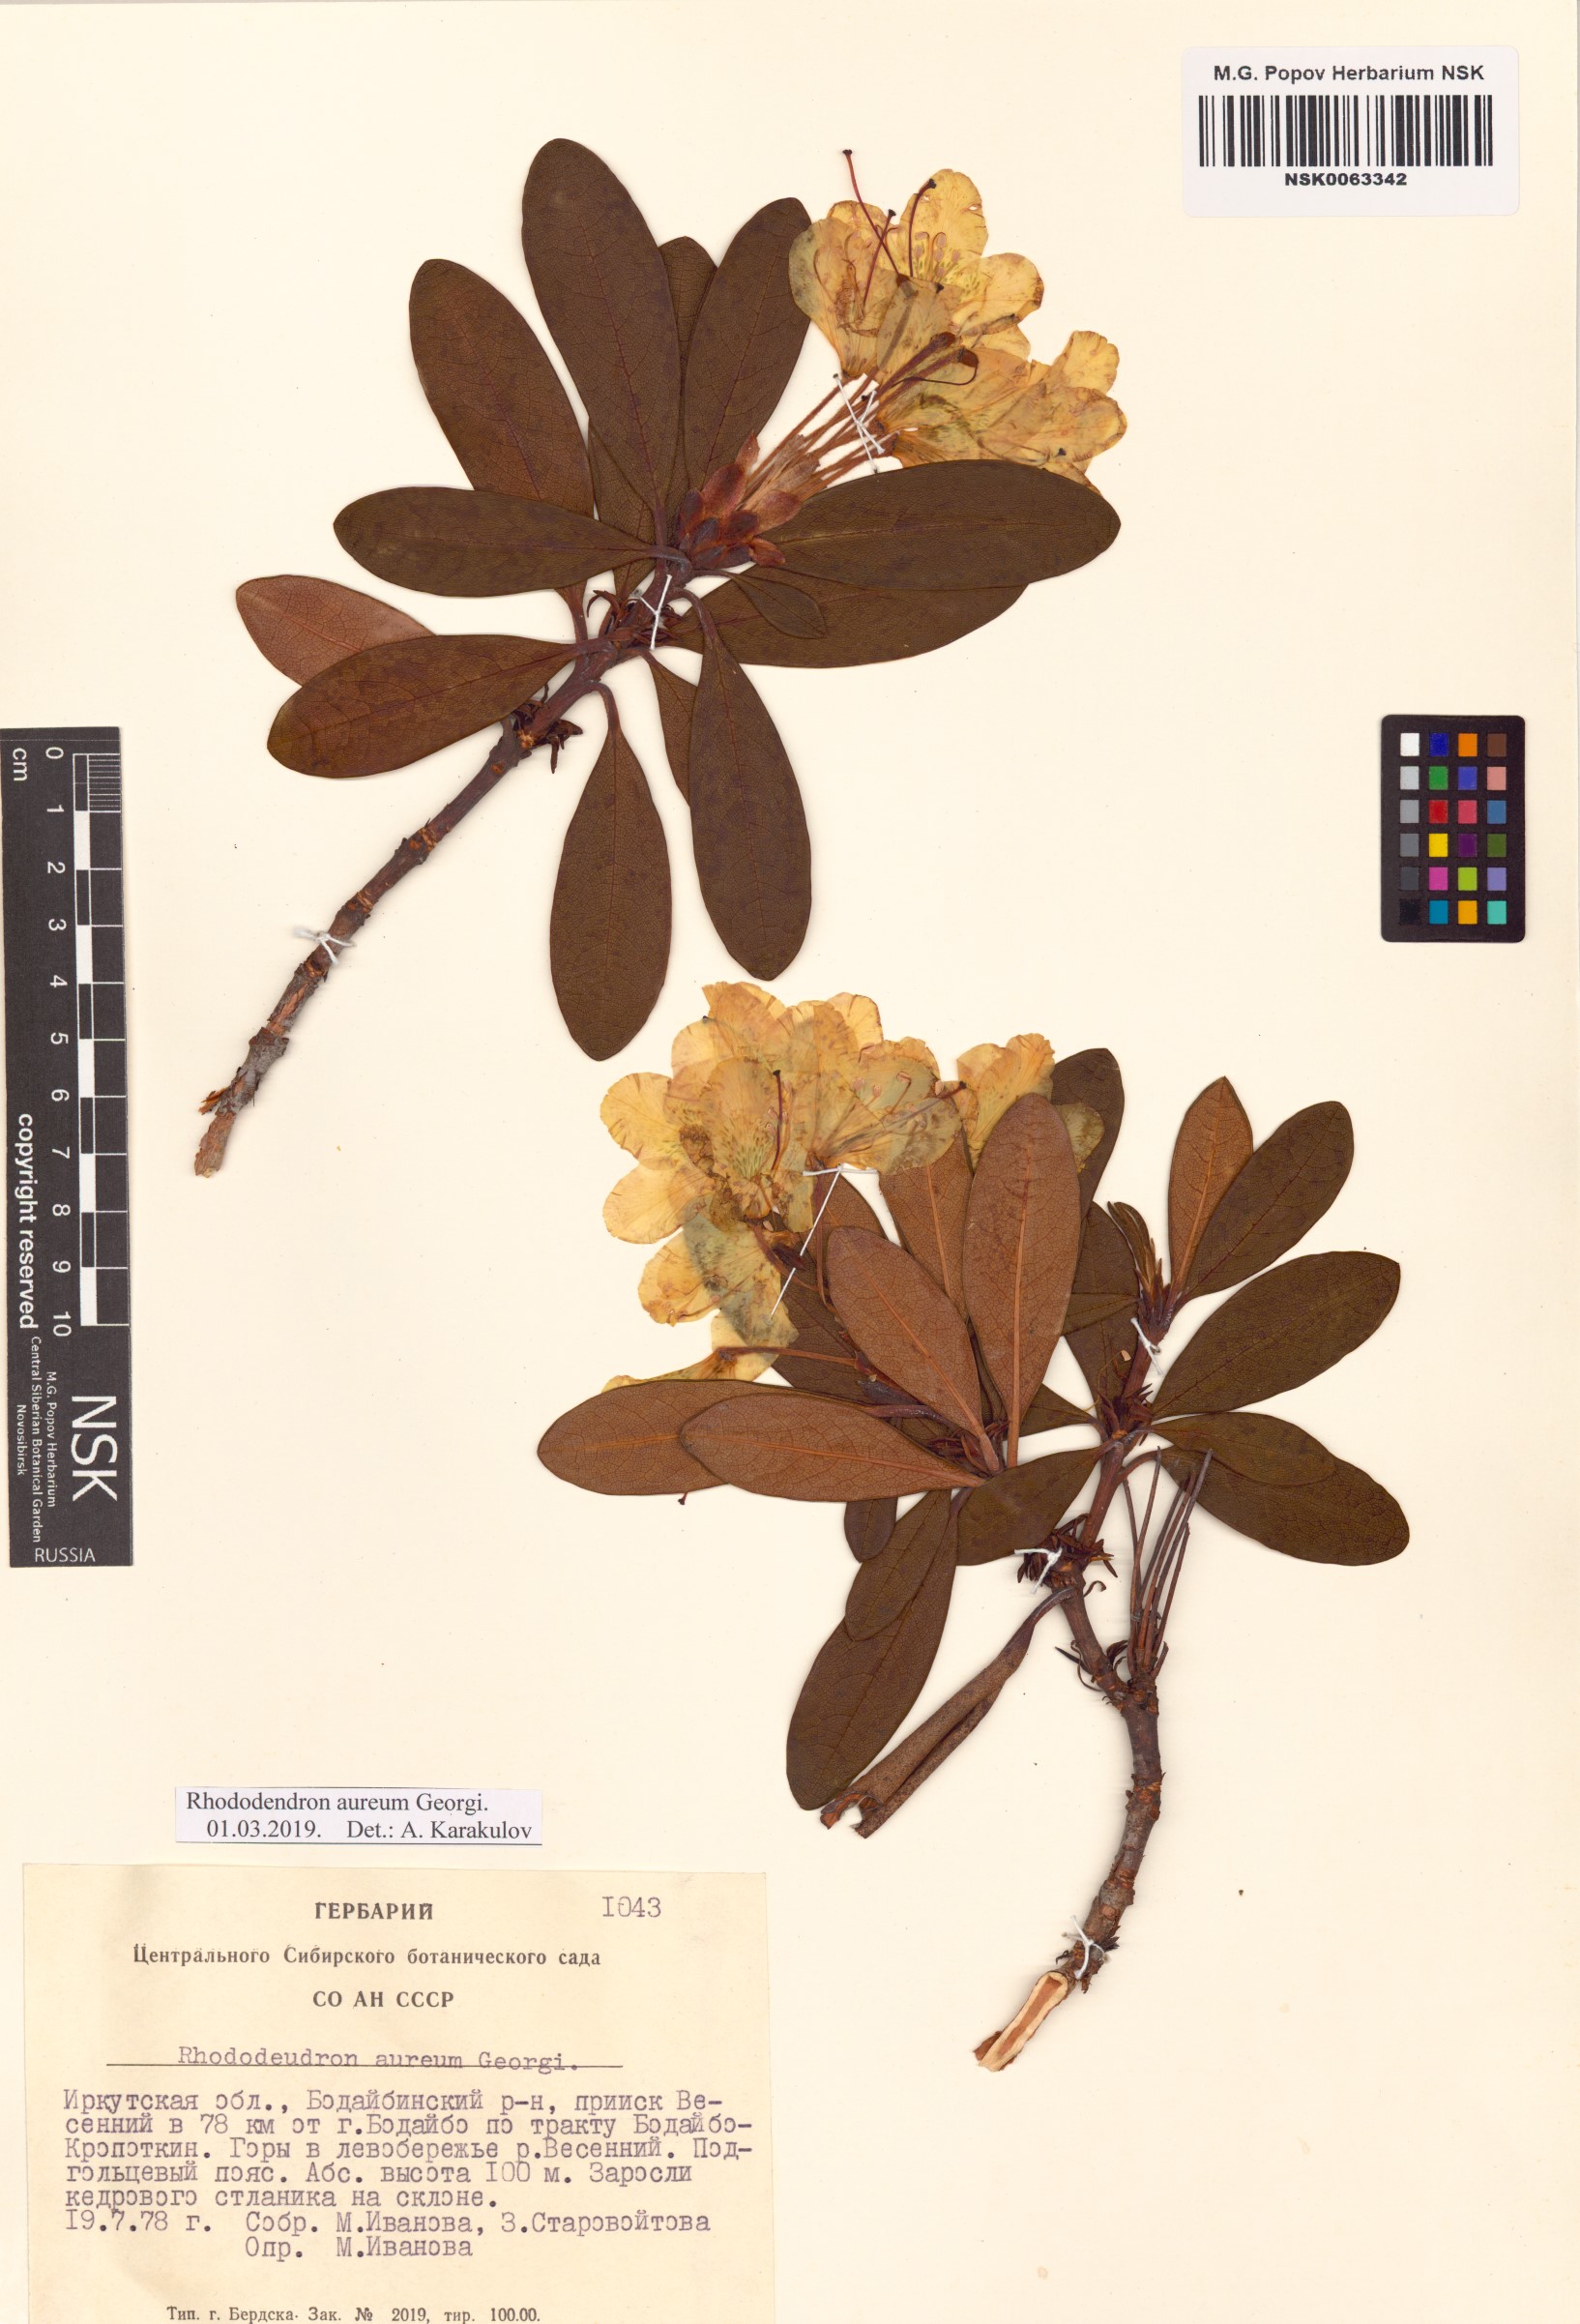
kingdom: Plantae
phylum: Tracheophyta
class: Magnoliopsida
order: Ericales
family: Ericaceae
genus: Rhododendron
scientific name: Rhododendron aureum
